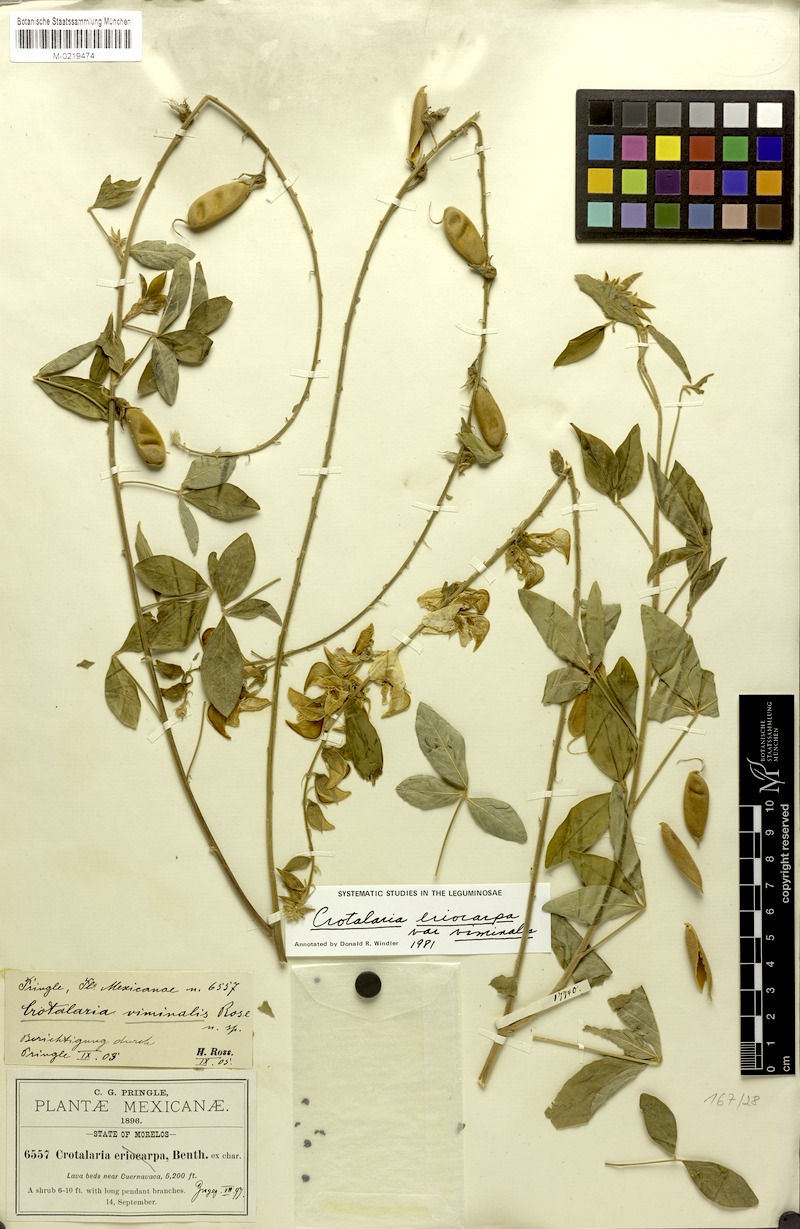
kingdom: Plantae
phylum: Tracheophyta
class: Magnoliopsida
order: Fabales
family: Fabaceae
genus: Crotalaria
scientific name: Crotalaria cajanifolia
